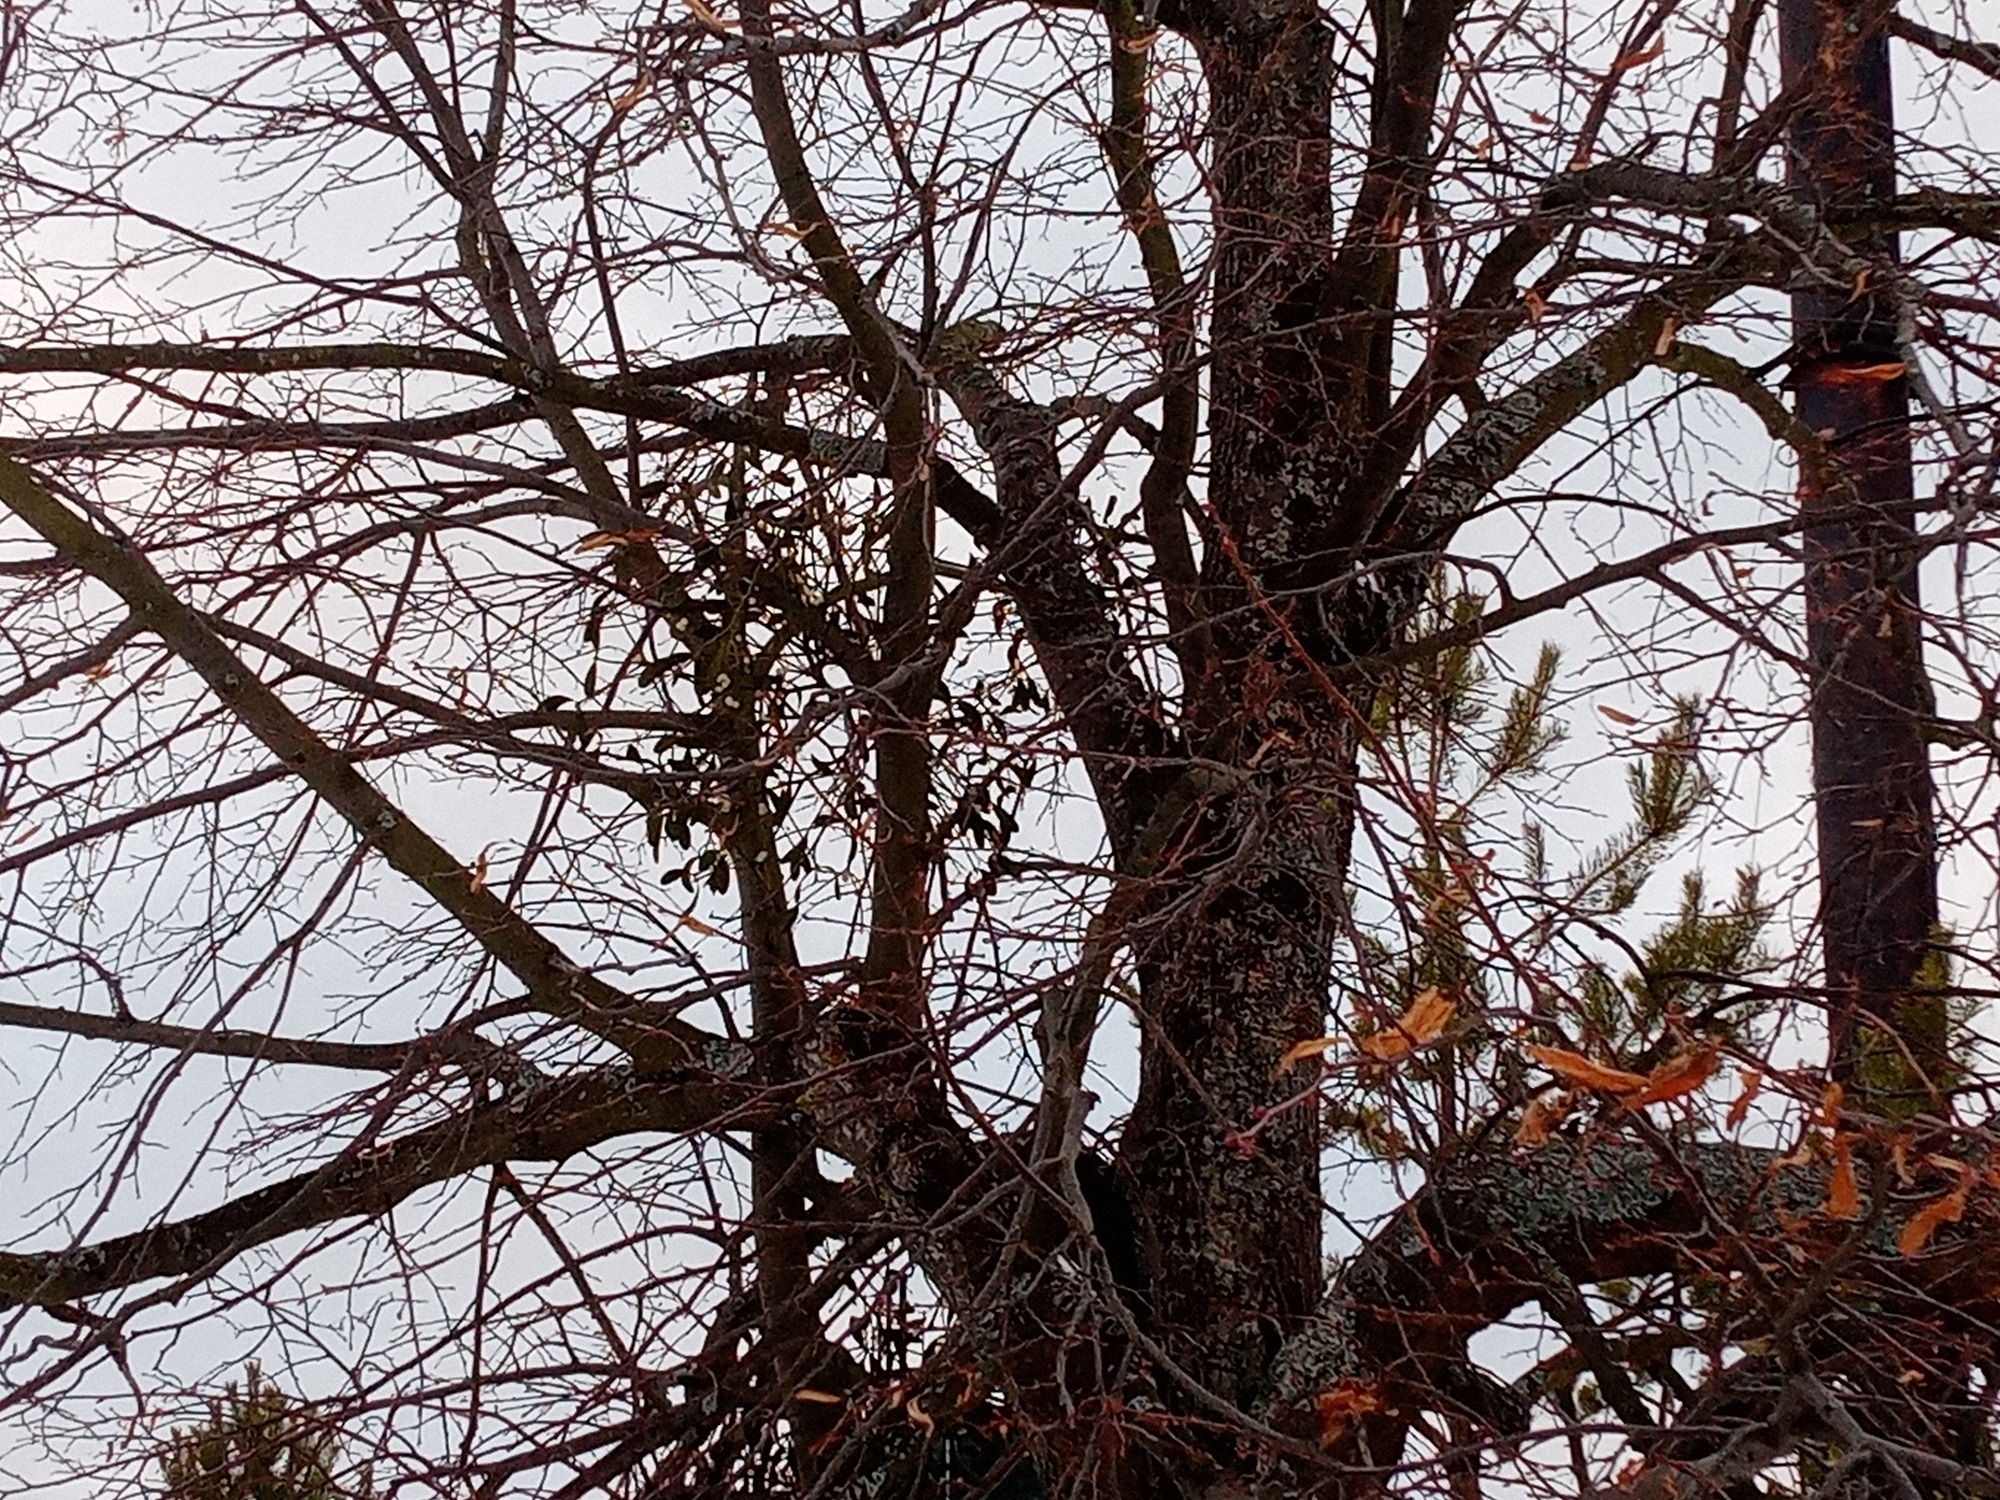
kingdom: Plantae
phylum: Tracheophyta
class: Magnoliopsida
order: Santalales
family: Viscaceae
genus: Viscum
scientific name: Viscum album
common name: Mistletoe
